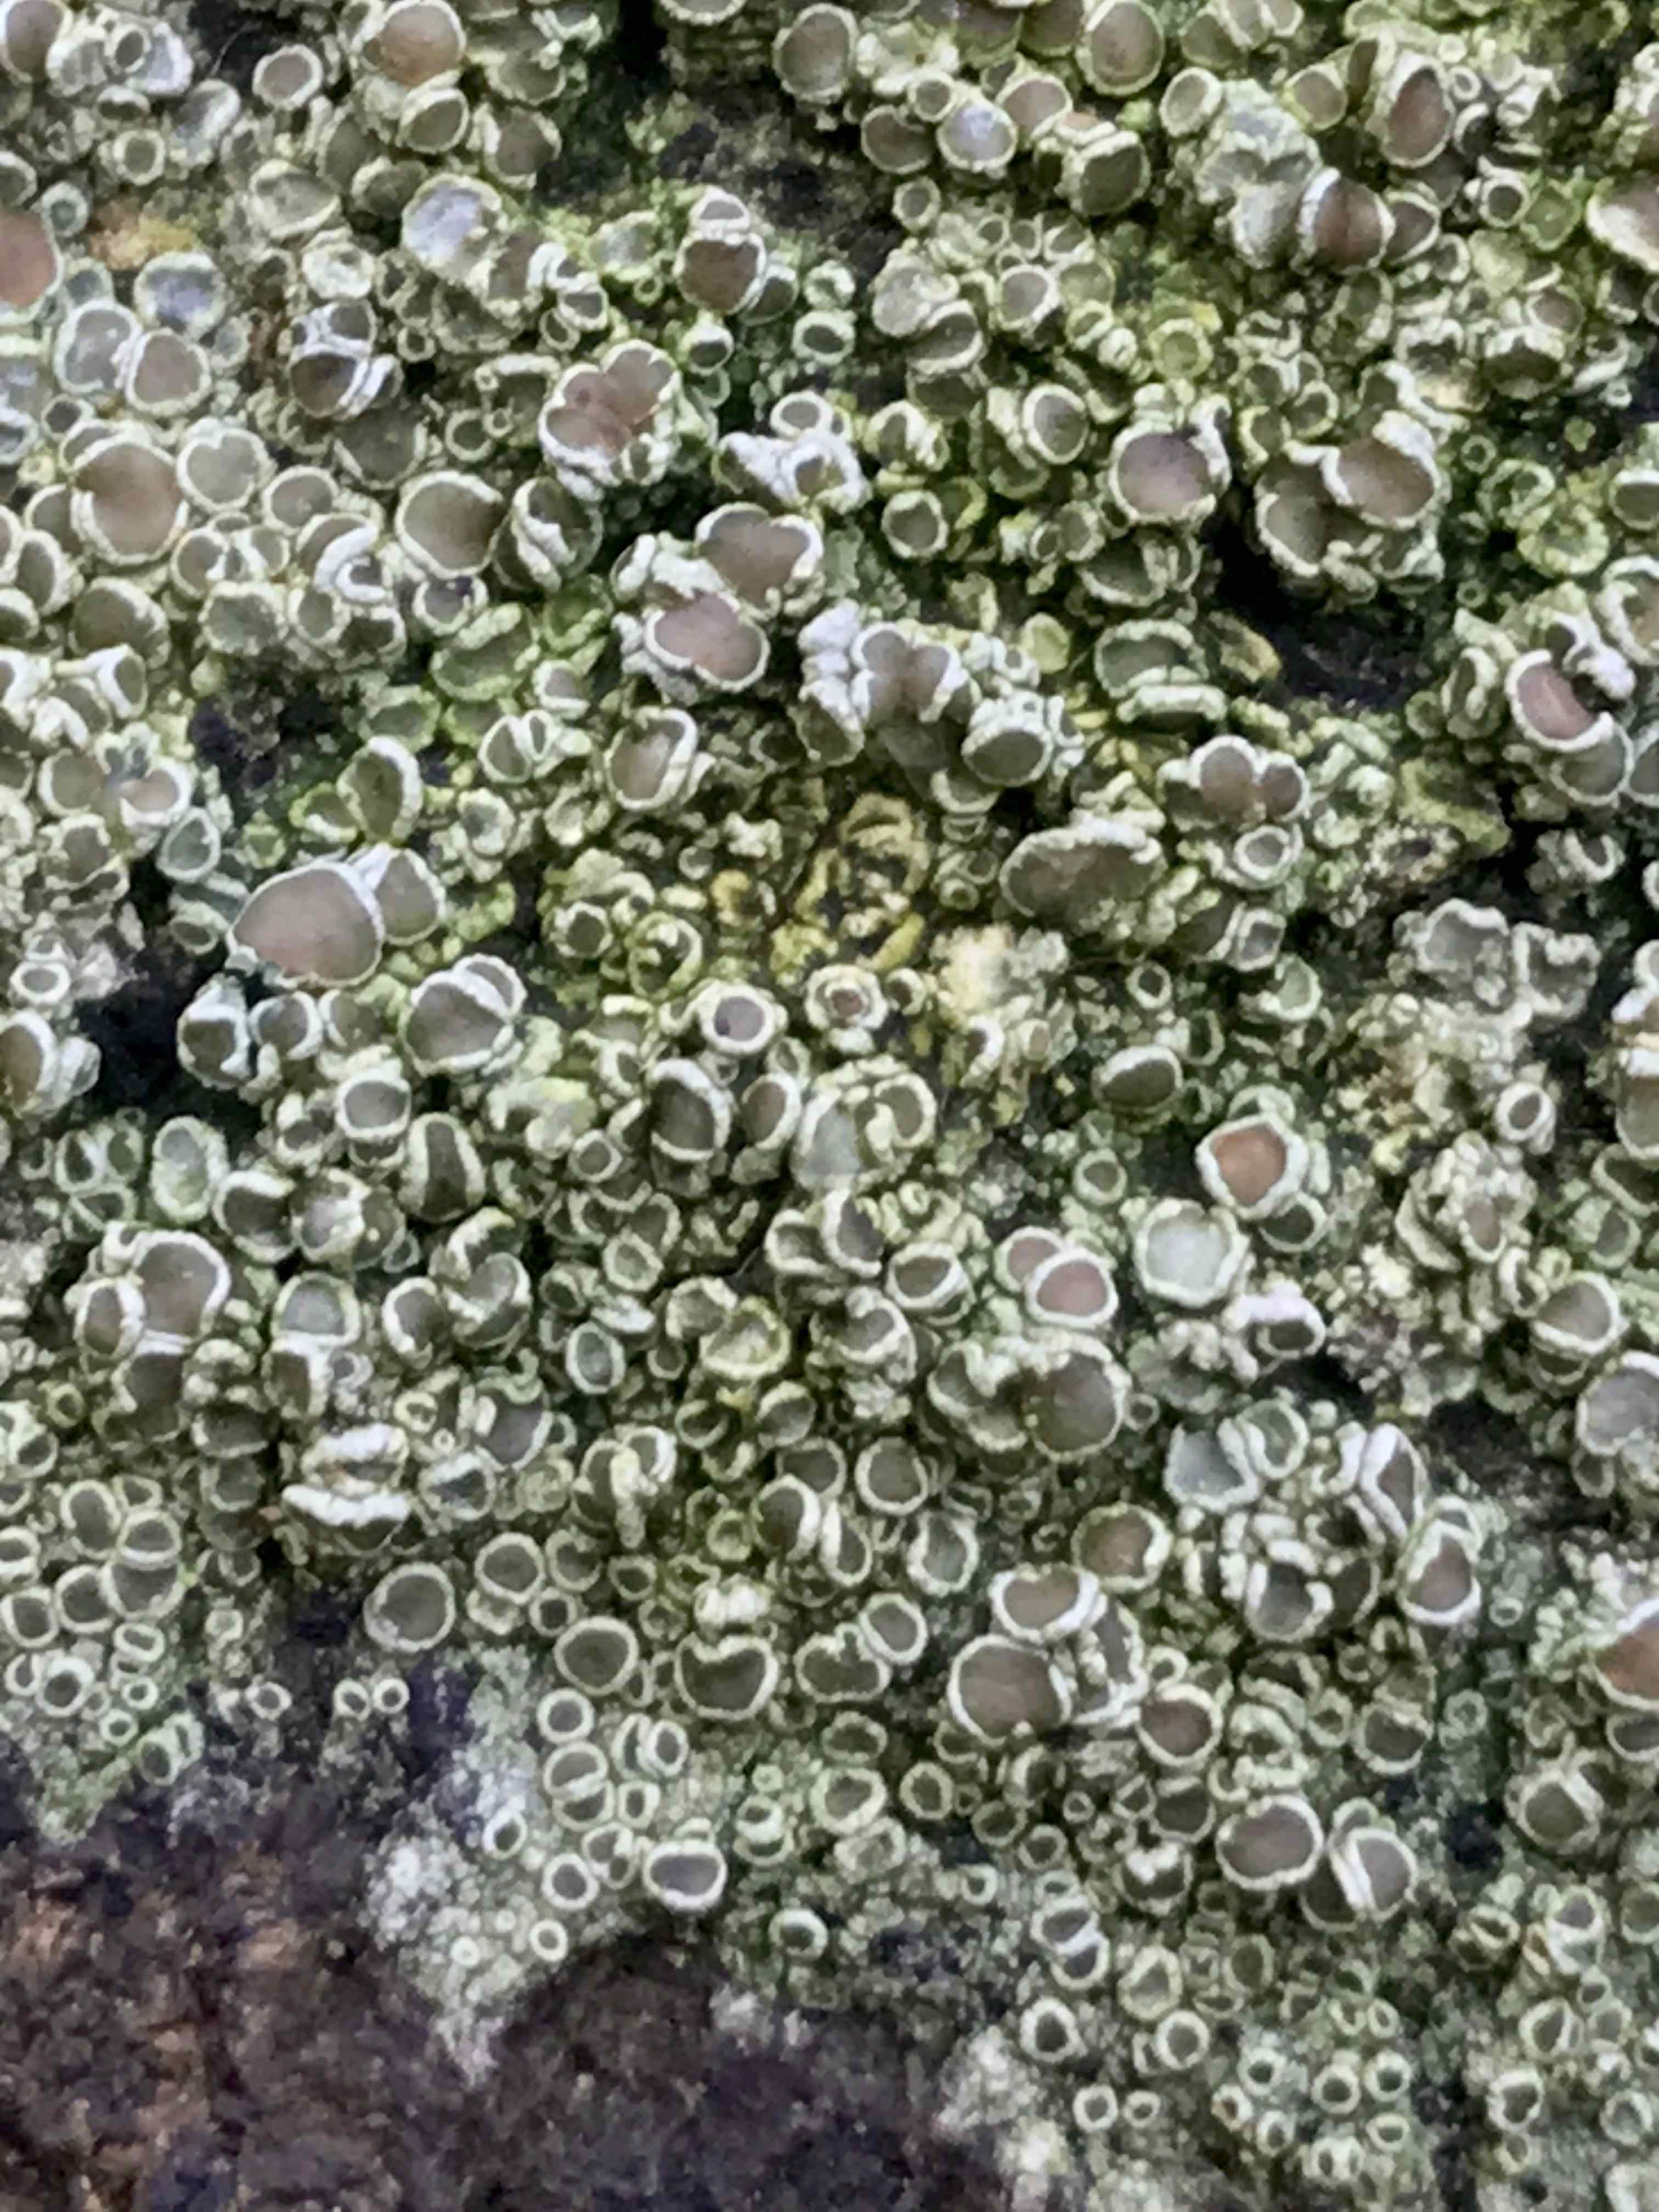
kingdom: Fungi
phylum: Ascomycota
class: Lecanoromycetes
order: Lecanorales
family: Lecanoraceae
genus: Lecanora
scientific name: Lecanora chlarotera
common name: brun kantskivelav
